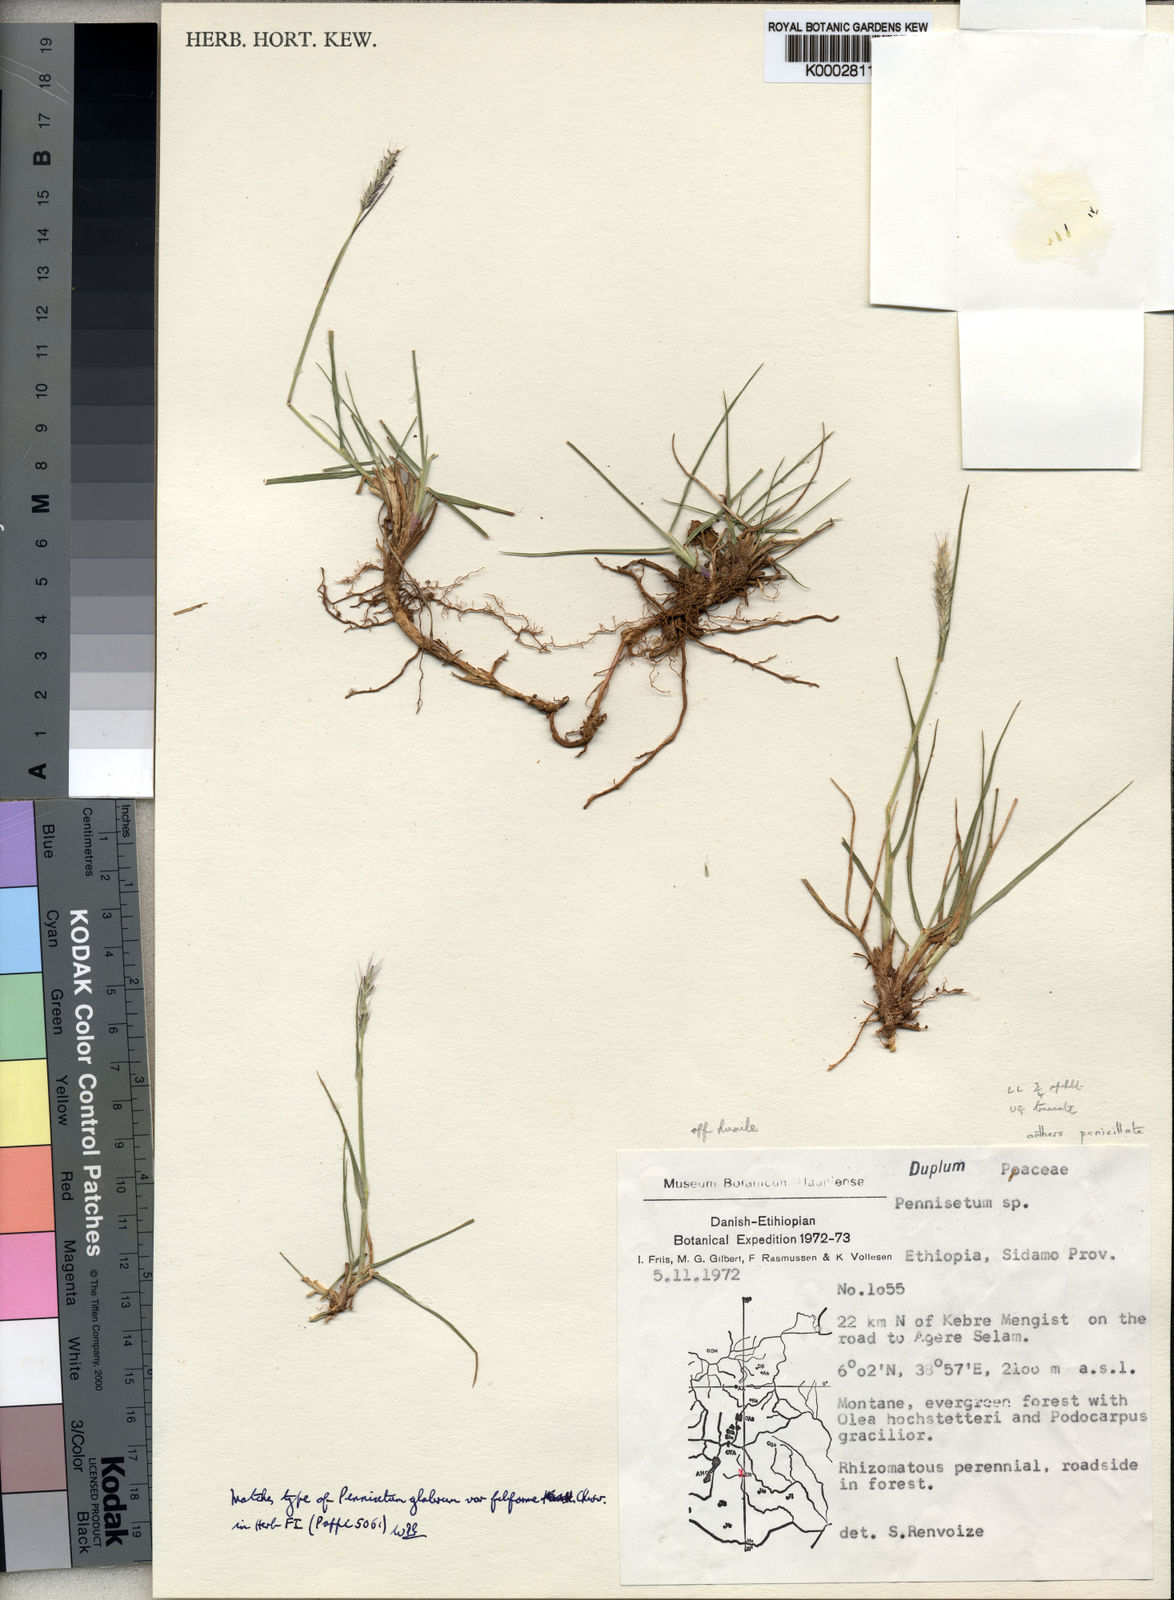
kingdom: Plantae
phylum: Tracheophyta
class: Liliopsida
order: Poales
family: Poaceae
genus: Cenchrus
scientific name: Cenchrus geniculatus
